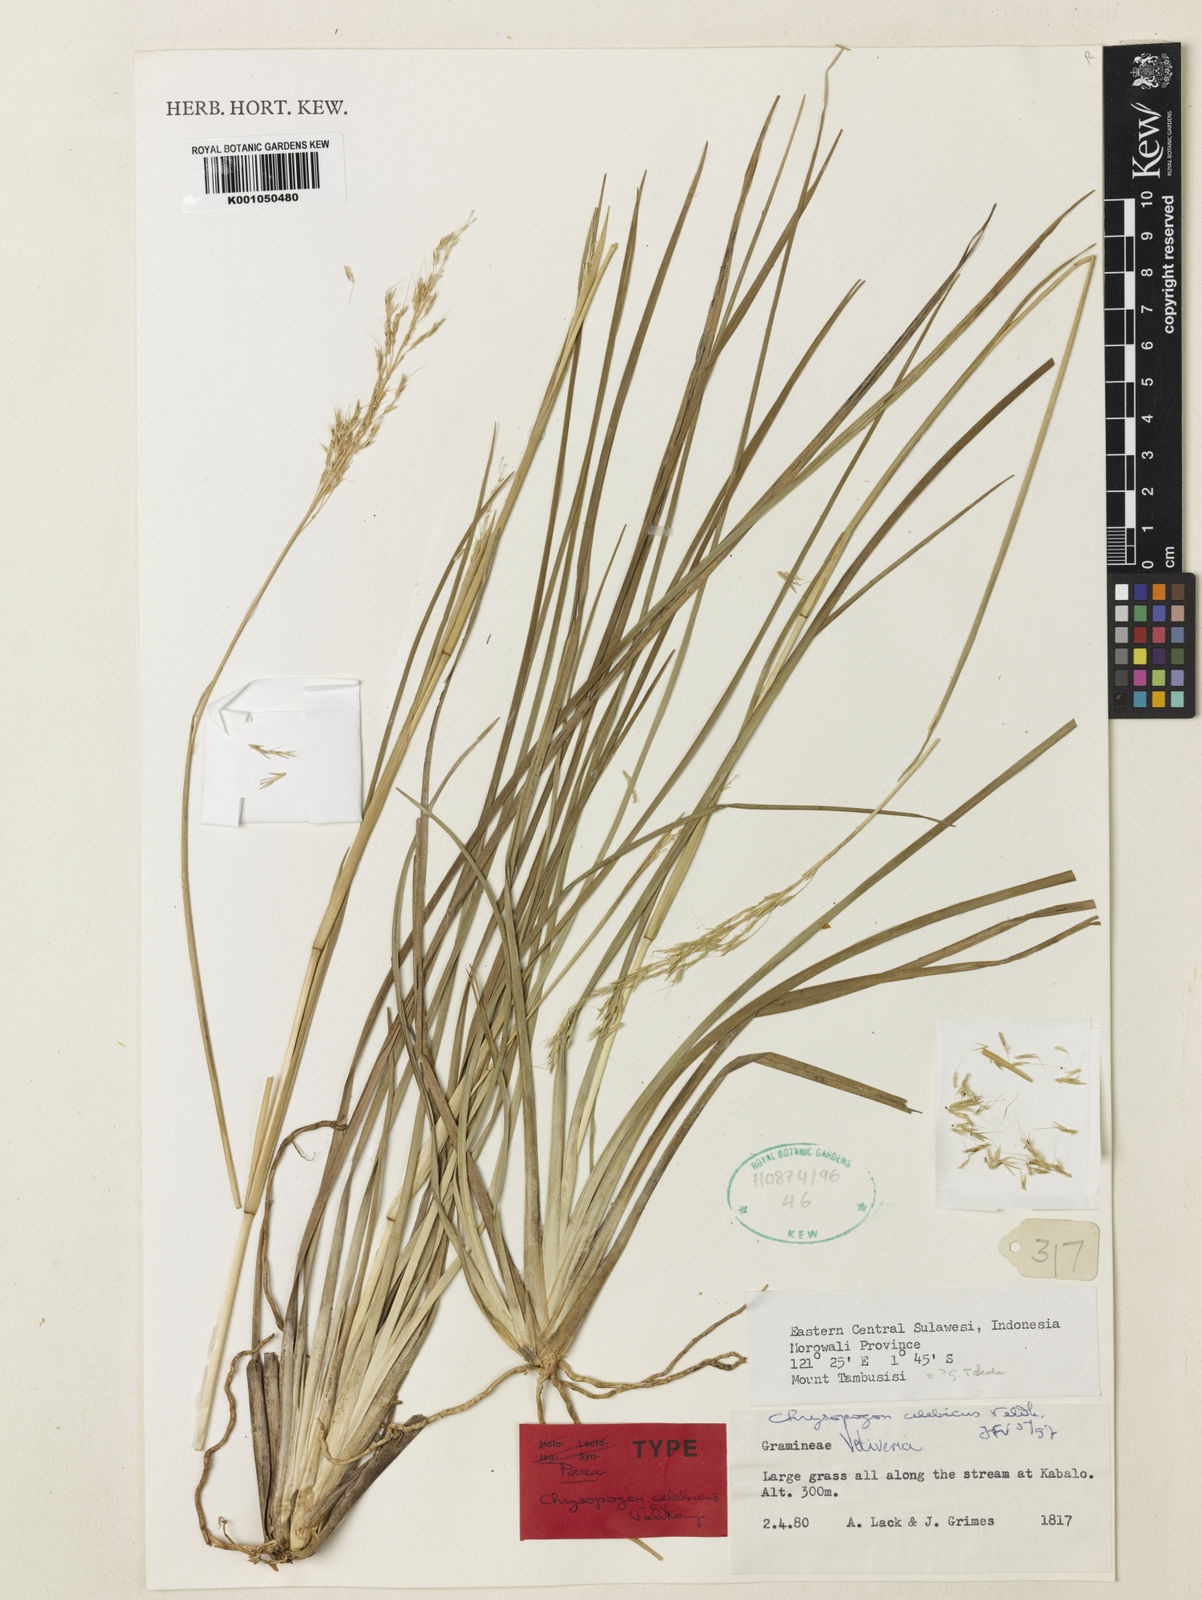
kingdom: Plantae
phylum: Tracheophyta
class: Liliopsida
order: Poales
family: Poaceae
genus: Chrysopogon
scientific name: Chrysopogon celebicus
